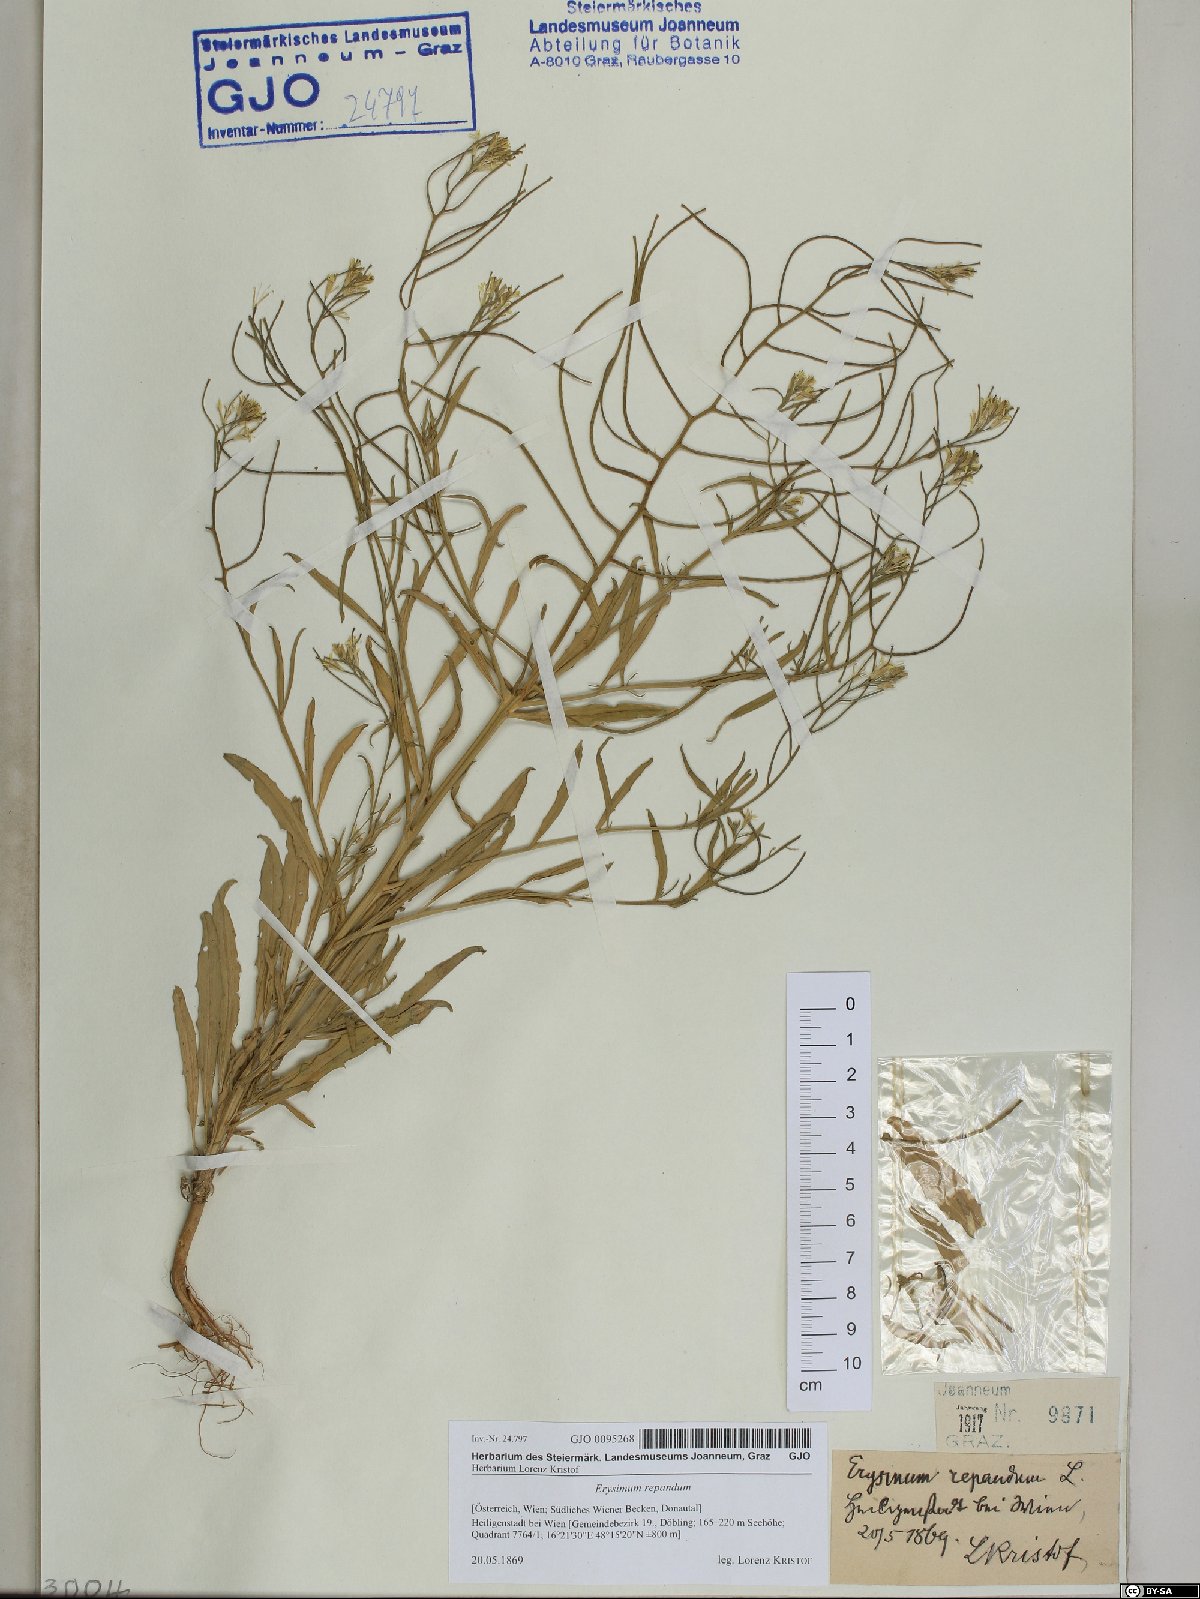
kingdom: Plantae
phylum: Tracheophyta
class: Magnoliopsida
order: Brassicales
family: Brassicaceae
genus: Erysimum
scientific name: Erysimum repandum
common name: Spreading wallflower
